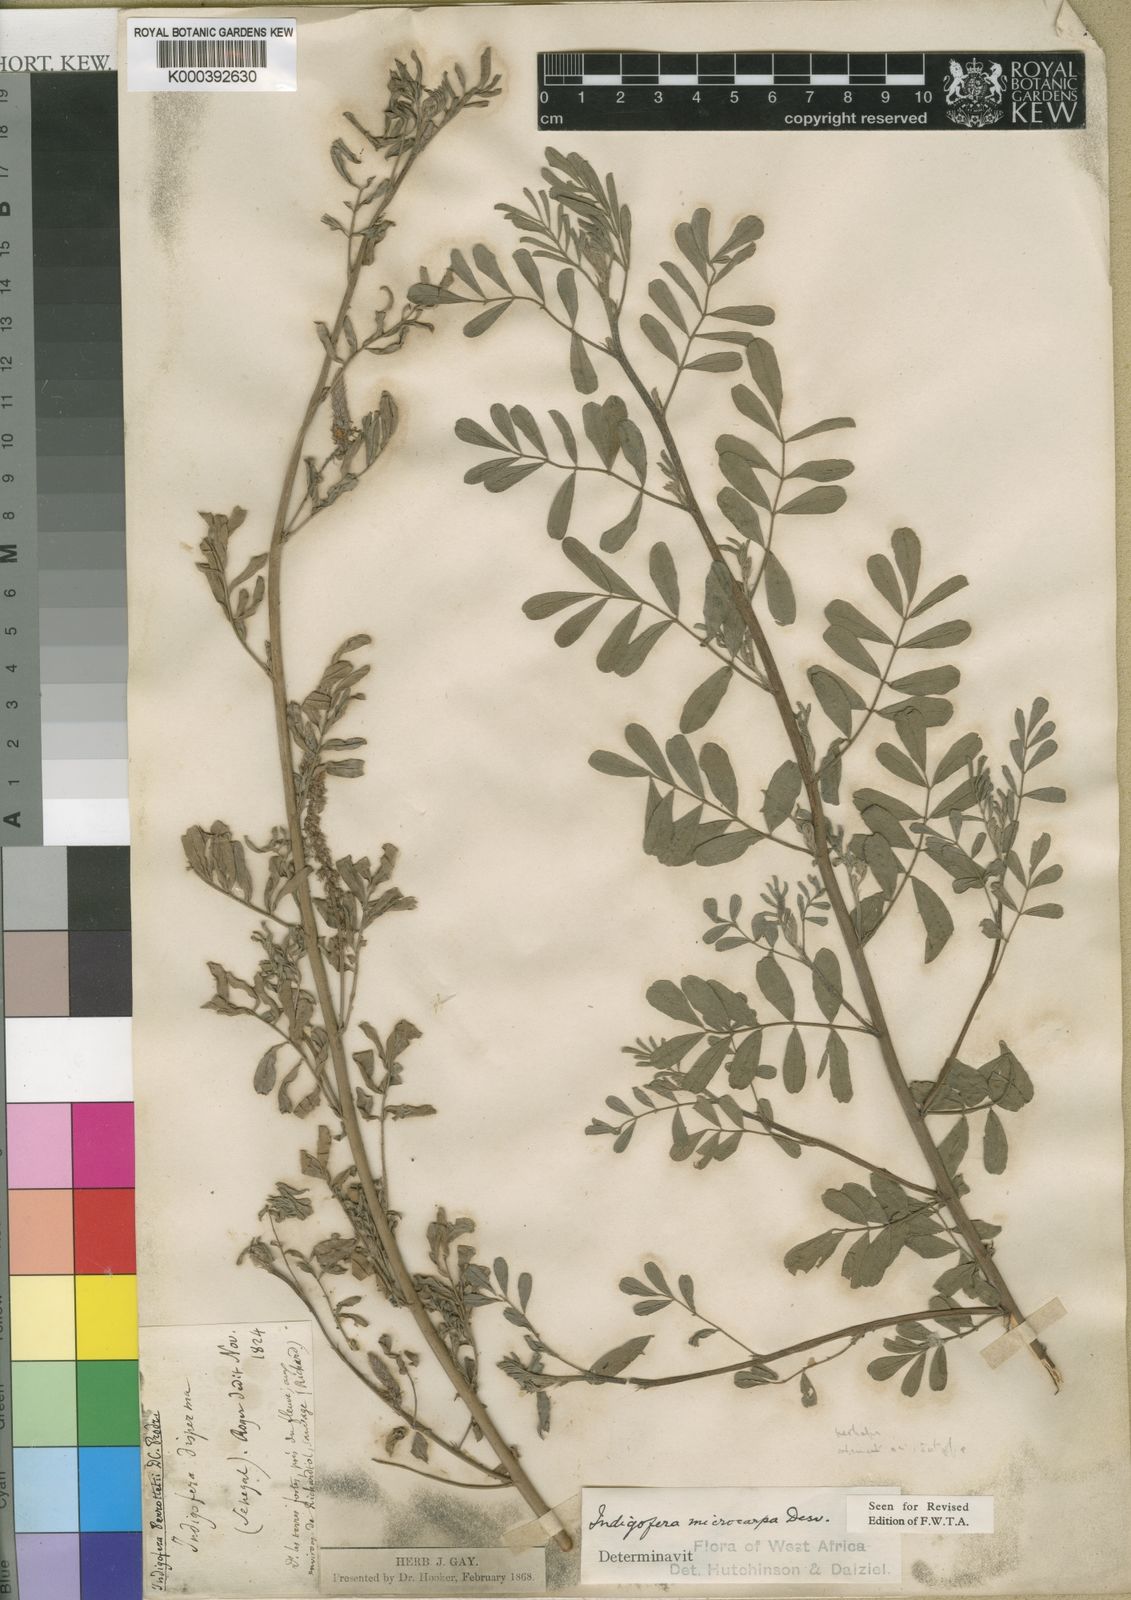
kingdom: Plantae
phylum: Tracheophyta
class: Magnoliopsida
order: Fabales
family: Fabaceae
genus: Indigofera
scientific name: Indigofera microcarpa
